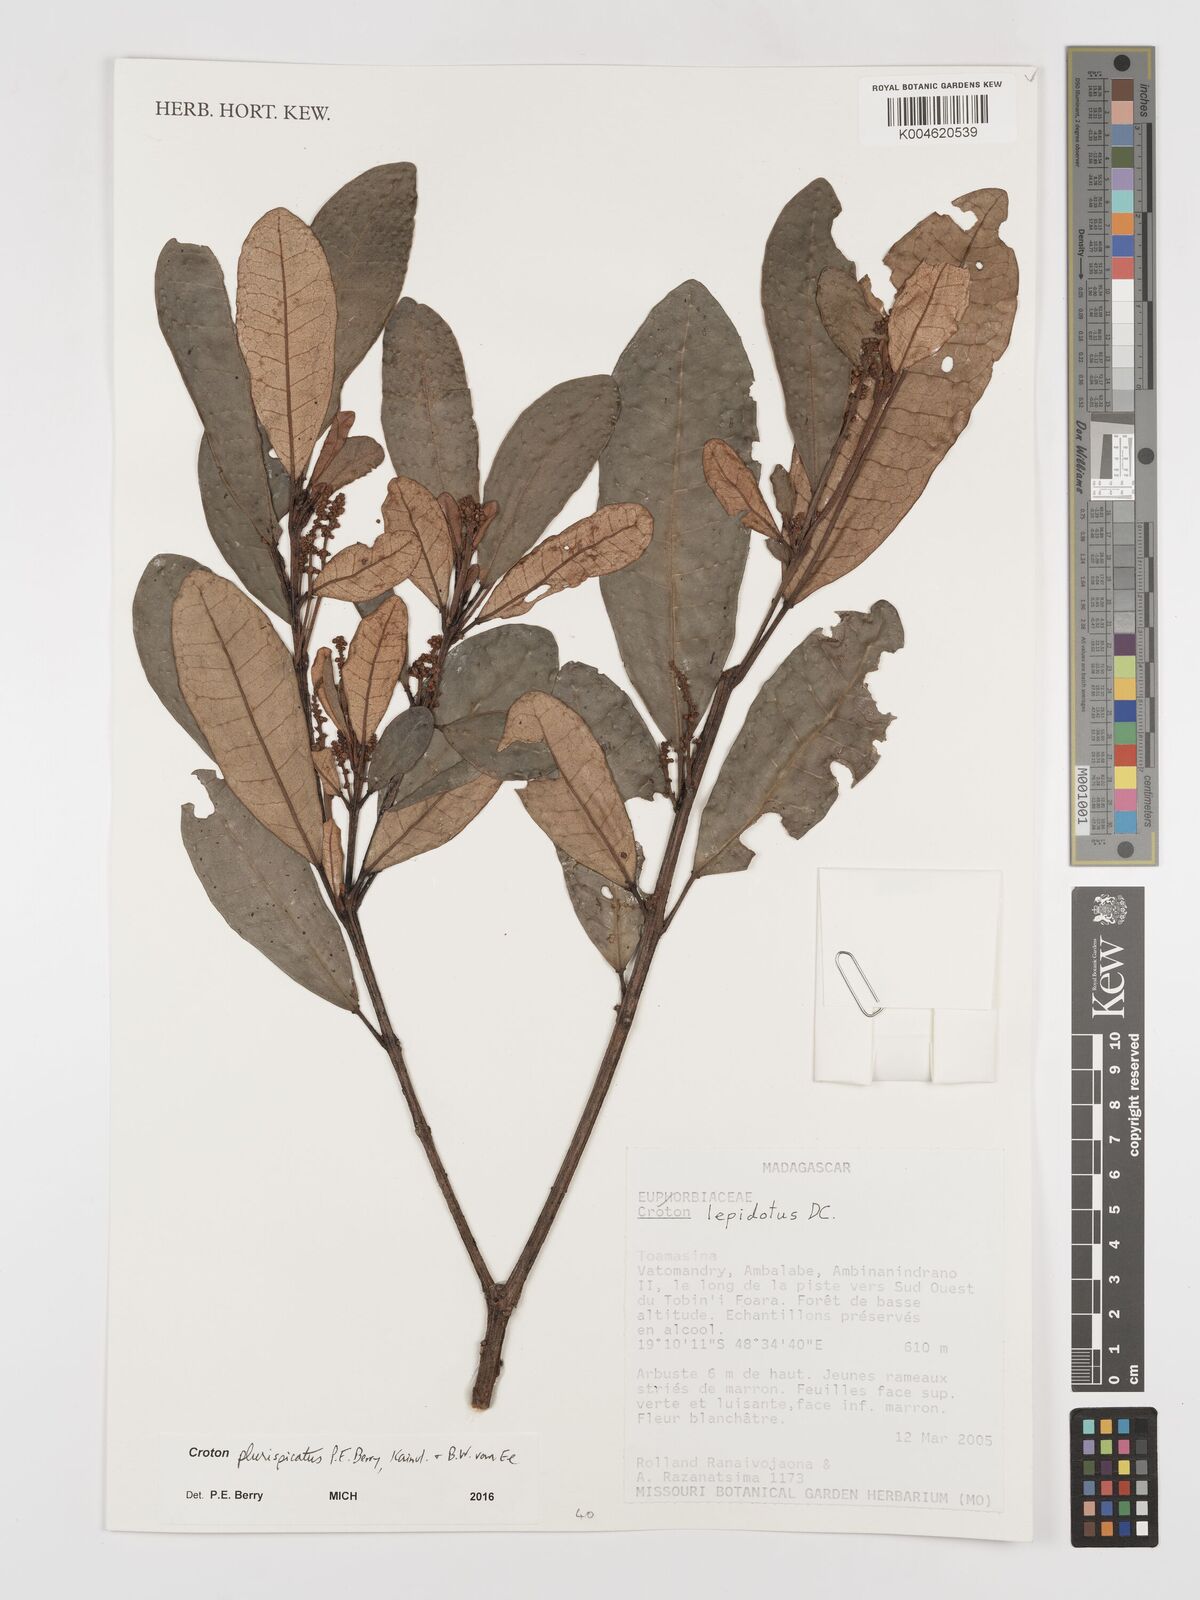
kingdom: Plantae
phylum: Tracheophyta
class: Magnoliopsida
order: Malpighiales
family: Euphorbiaceae
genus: Croton
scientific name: Croton plurispicatus
